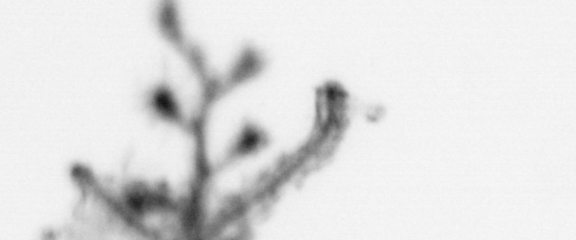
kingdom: Animalia
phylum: Cnidaria
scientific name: Cnidaria
